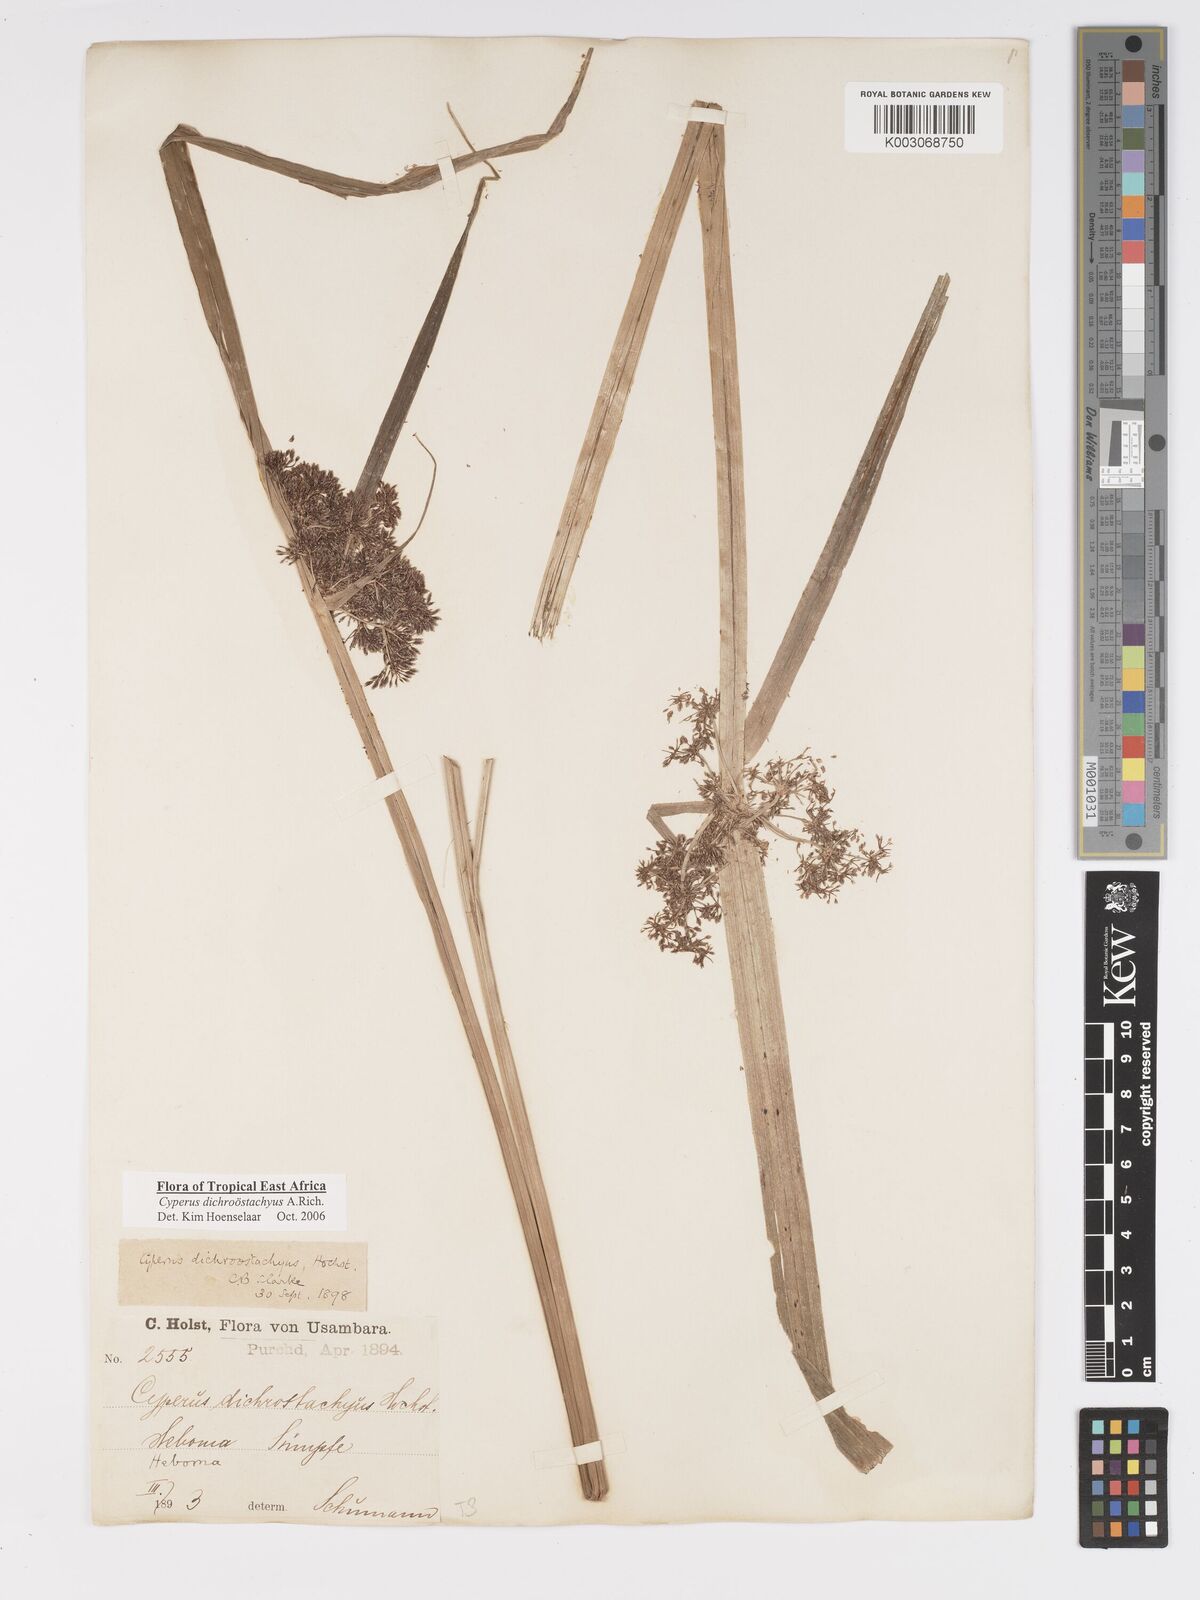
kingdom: Plantae
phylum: Tracheophyta
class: Liliopsida
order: Poales
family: Cyperaceae
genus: Cyperus
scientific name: Cyperus dichrostachyus
